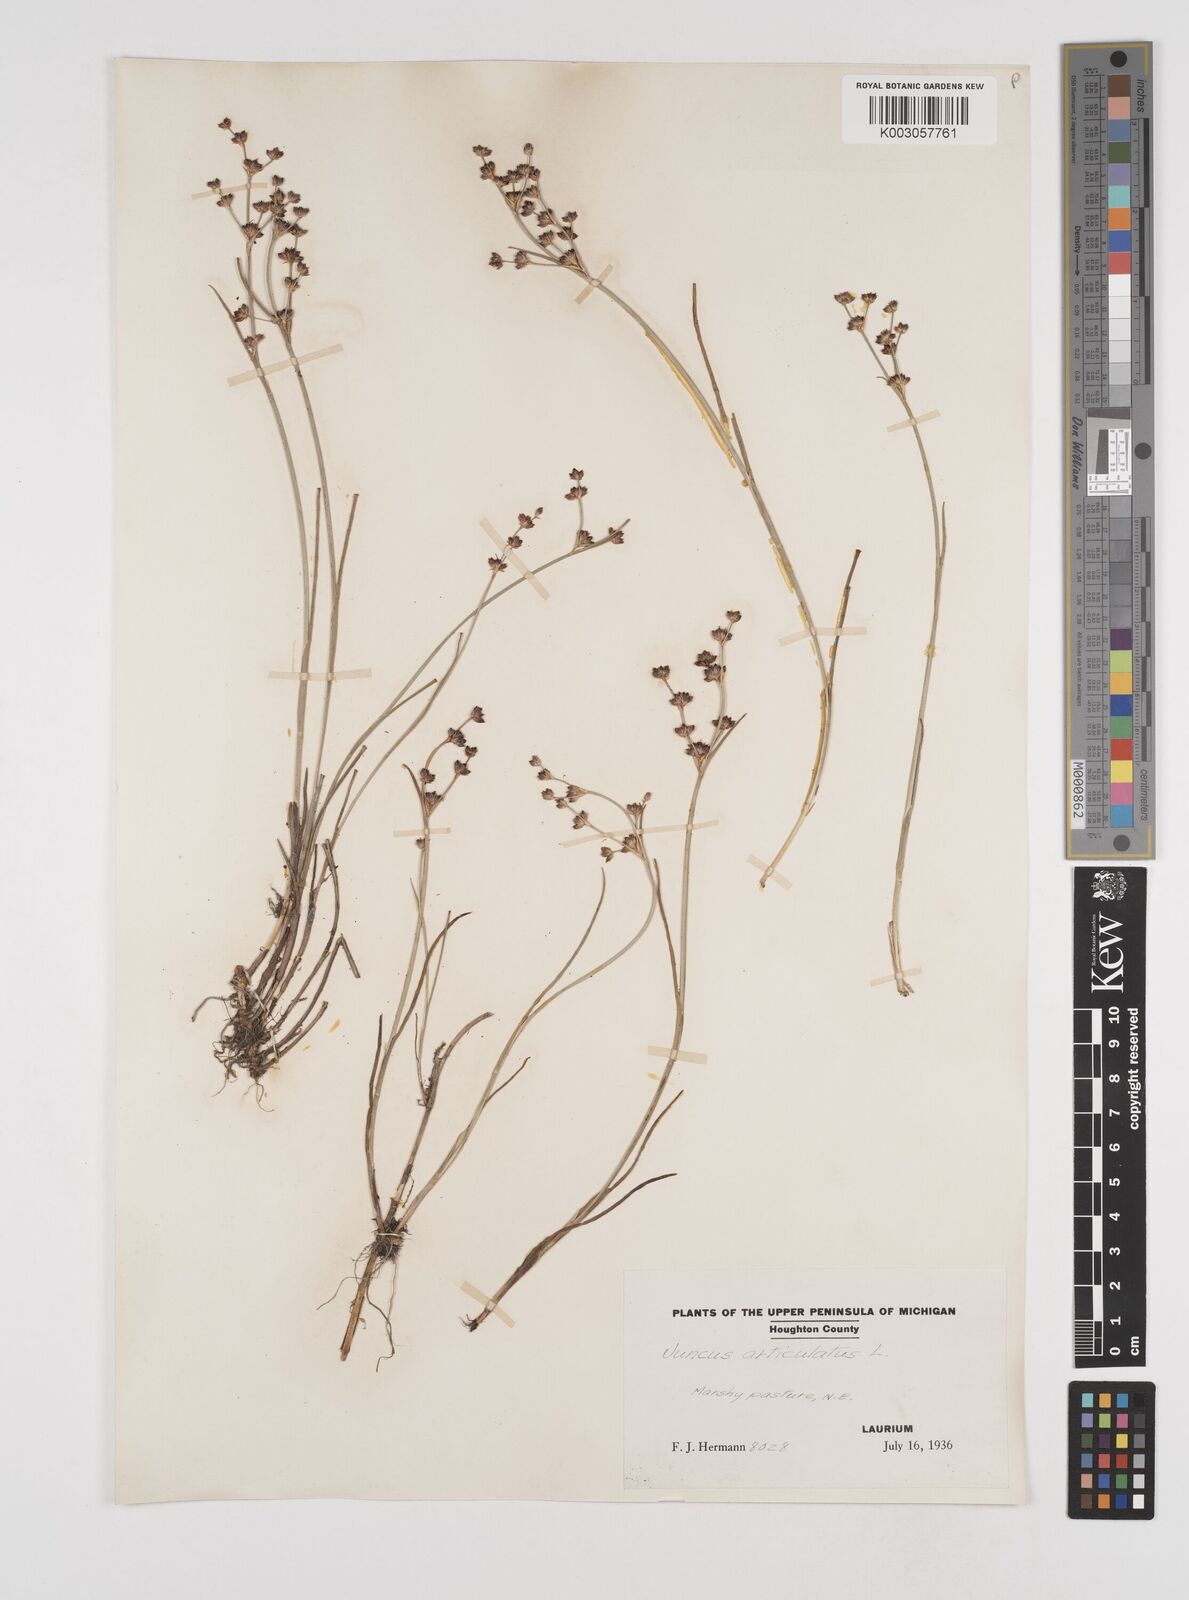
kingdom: Plantae
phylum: Tracheophyta
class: Liliopsida
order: Poales
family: Juncaceae
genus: Juncus
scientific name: Juncus articulatus
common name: Jointed rush
